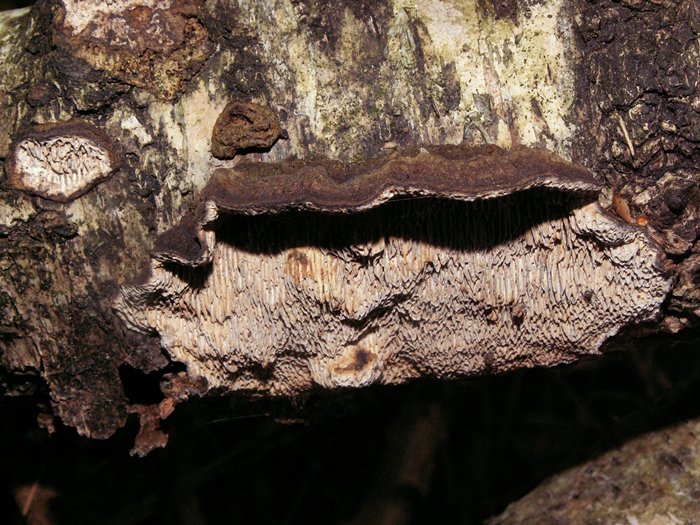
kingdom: Fungi
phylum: Basidiomycota
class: Agaricomycetes
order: Polyporales
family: Polyporaceae
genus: Podofomes
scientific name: Podofomes mollis
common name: blød begporesvamp
